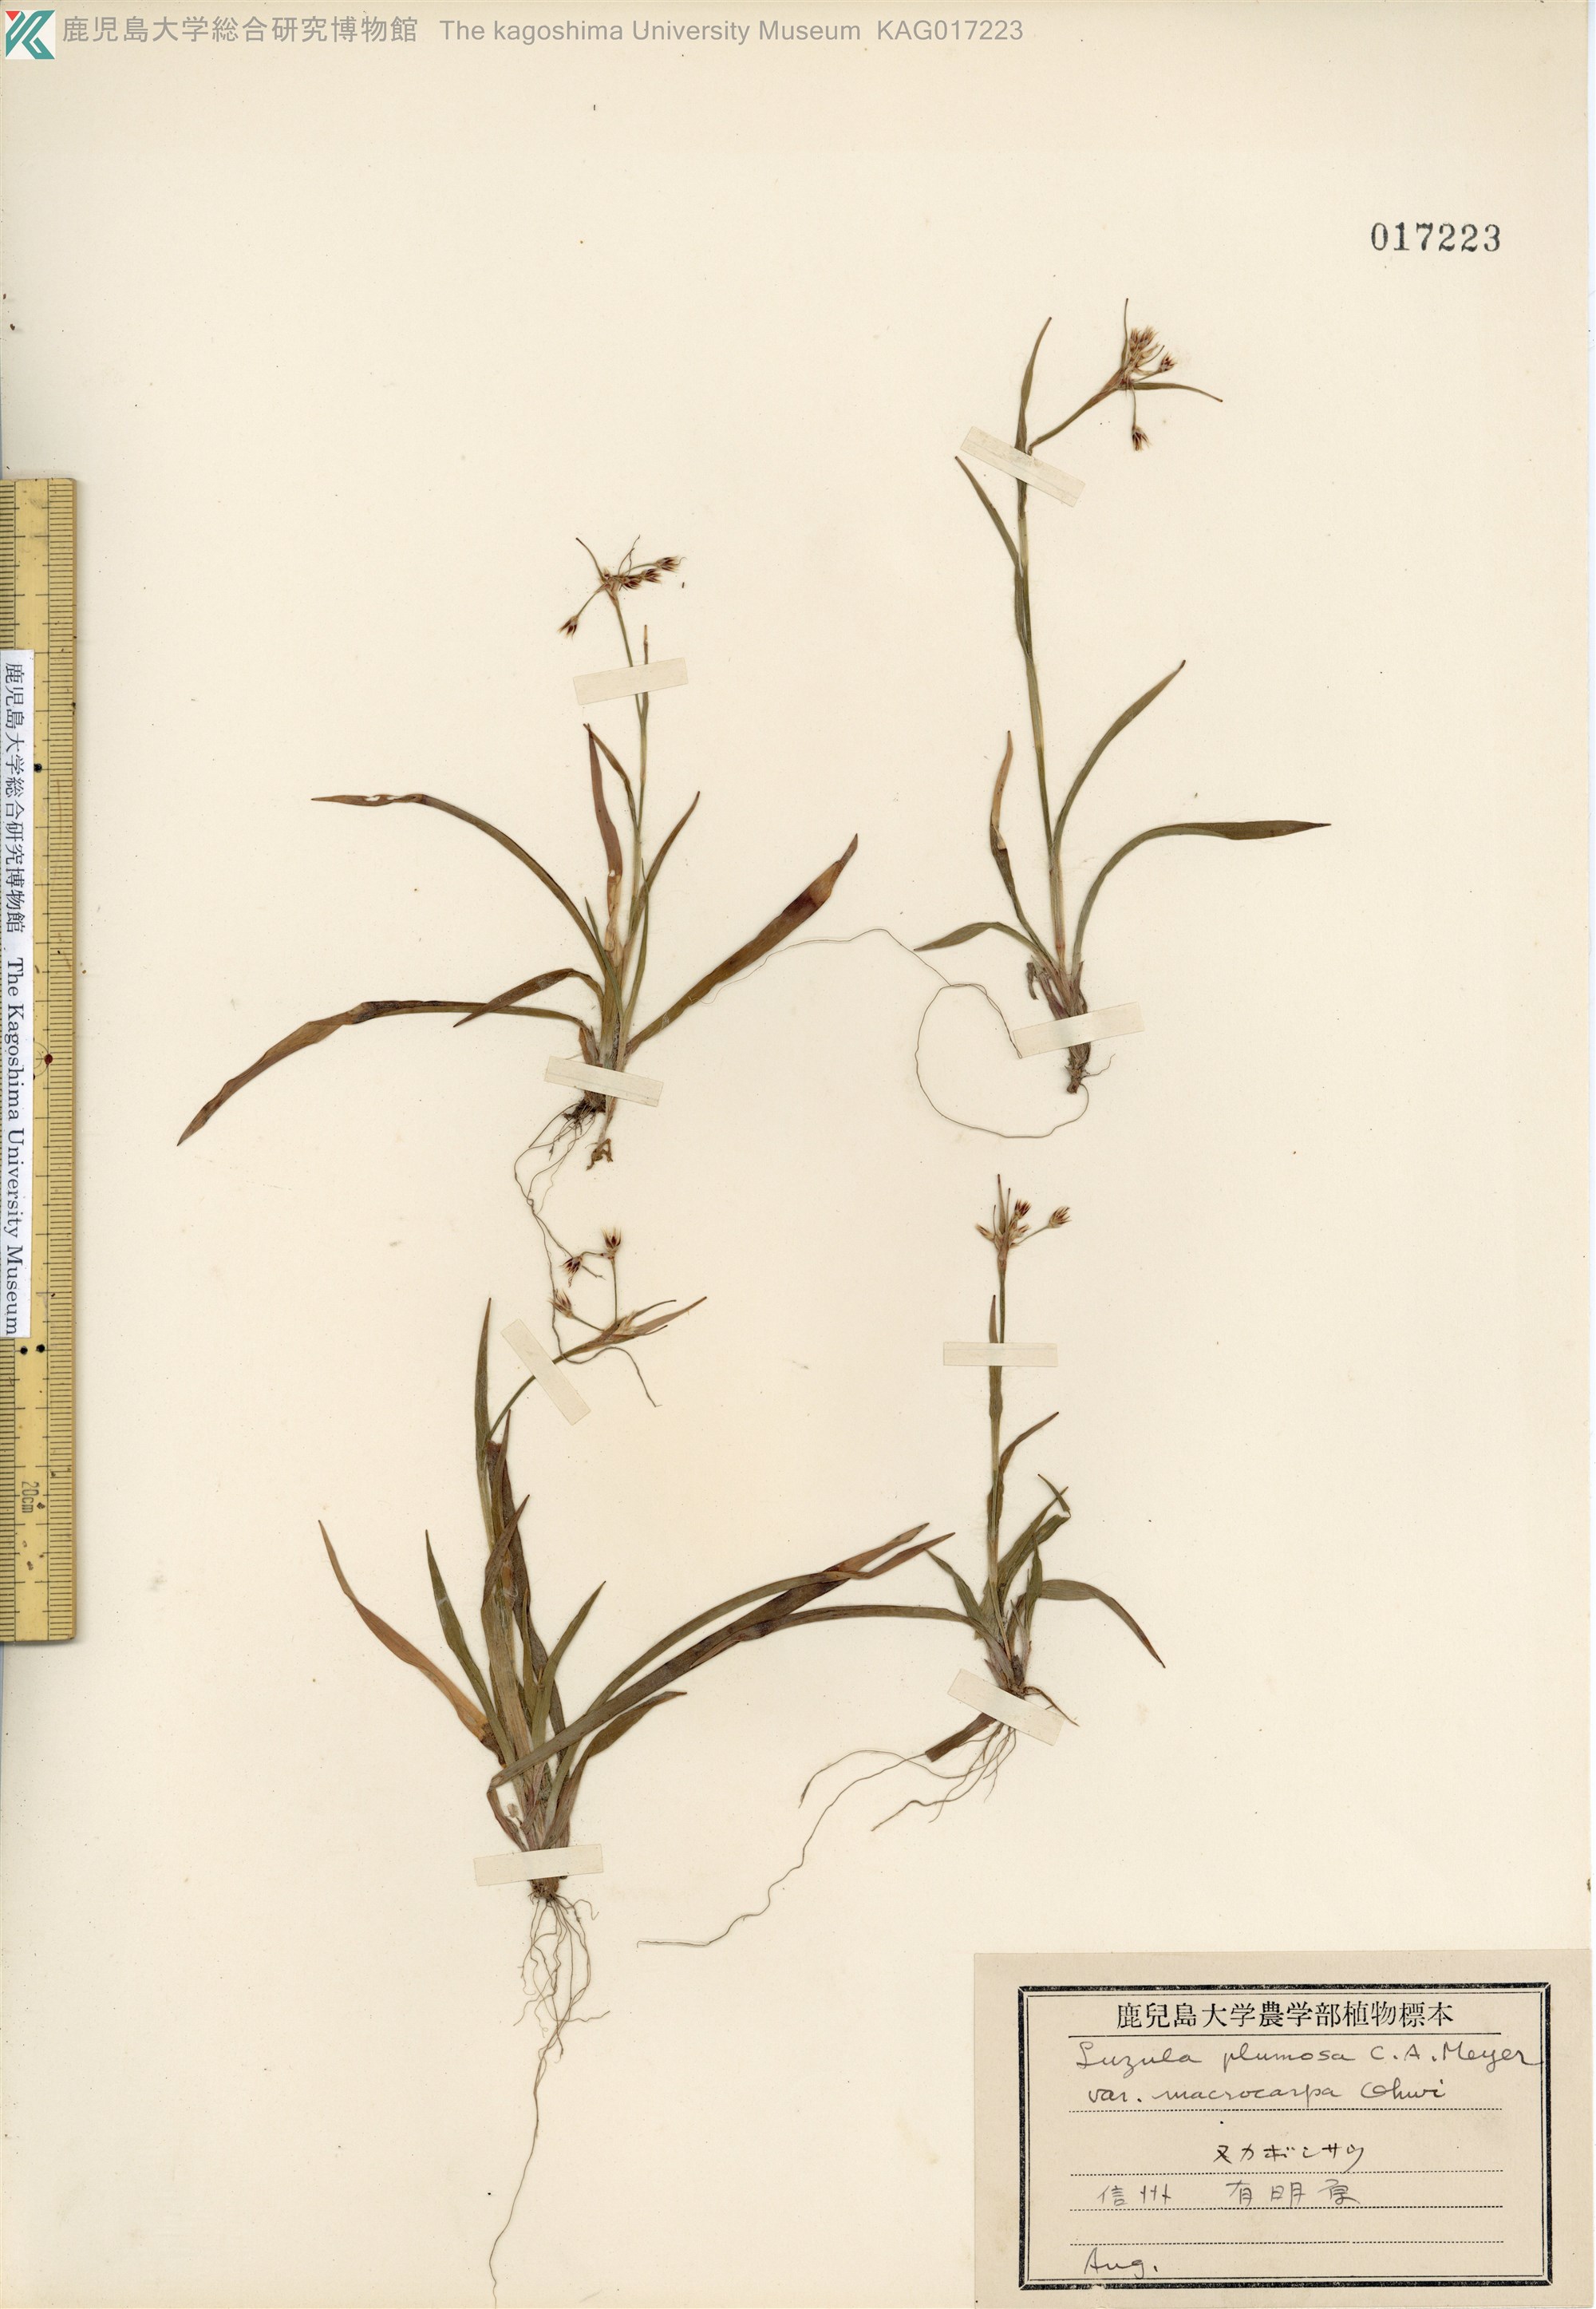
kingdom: Plantae
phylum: Tracheophyta
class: Liliopsida
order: Poales
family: Juncaceae
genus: Luzula
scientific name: Luzula plumosa
